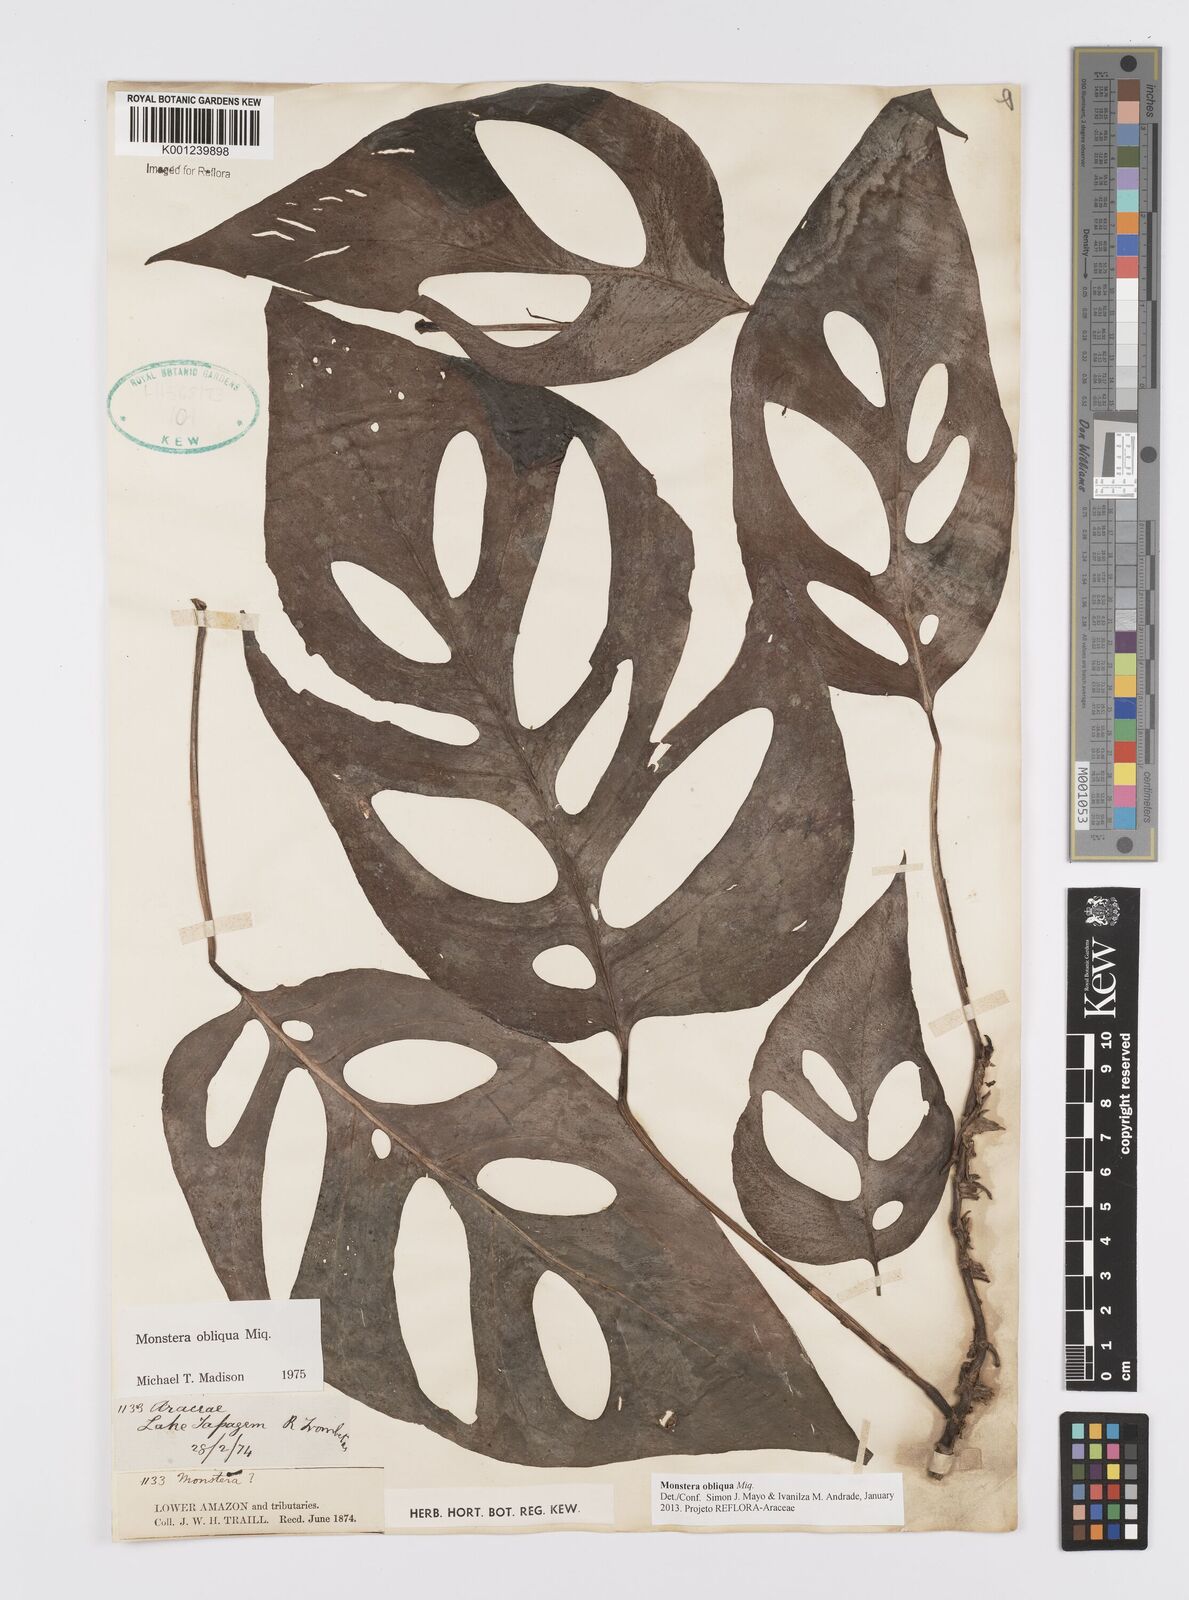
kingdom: Plantae
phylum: Tracheophyta
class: Liliopsida
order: Alismatales
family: Araceae
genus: Monstera
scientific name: Monstera obliqua
